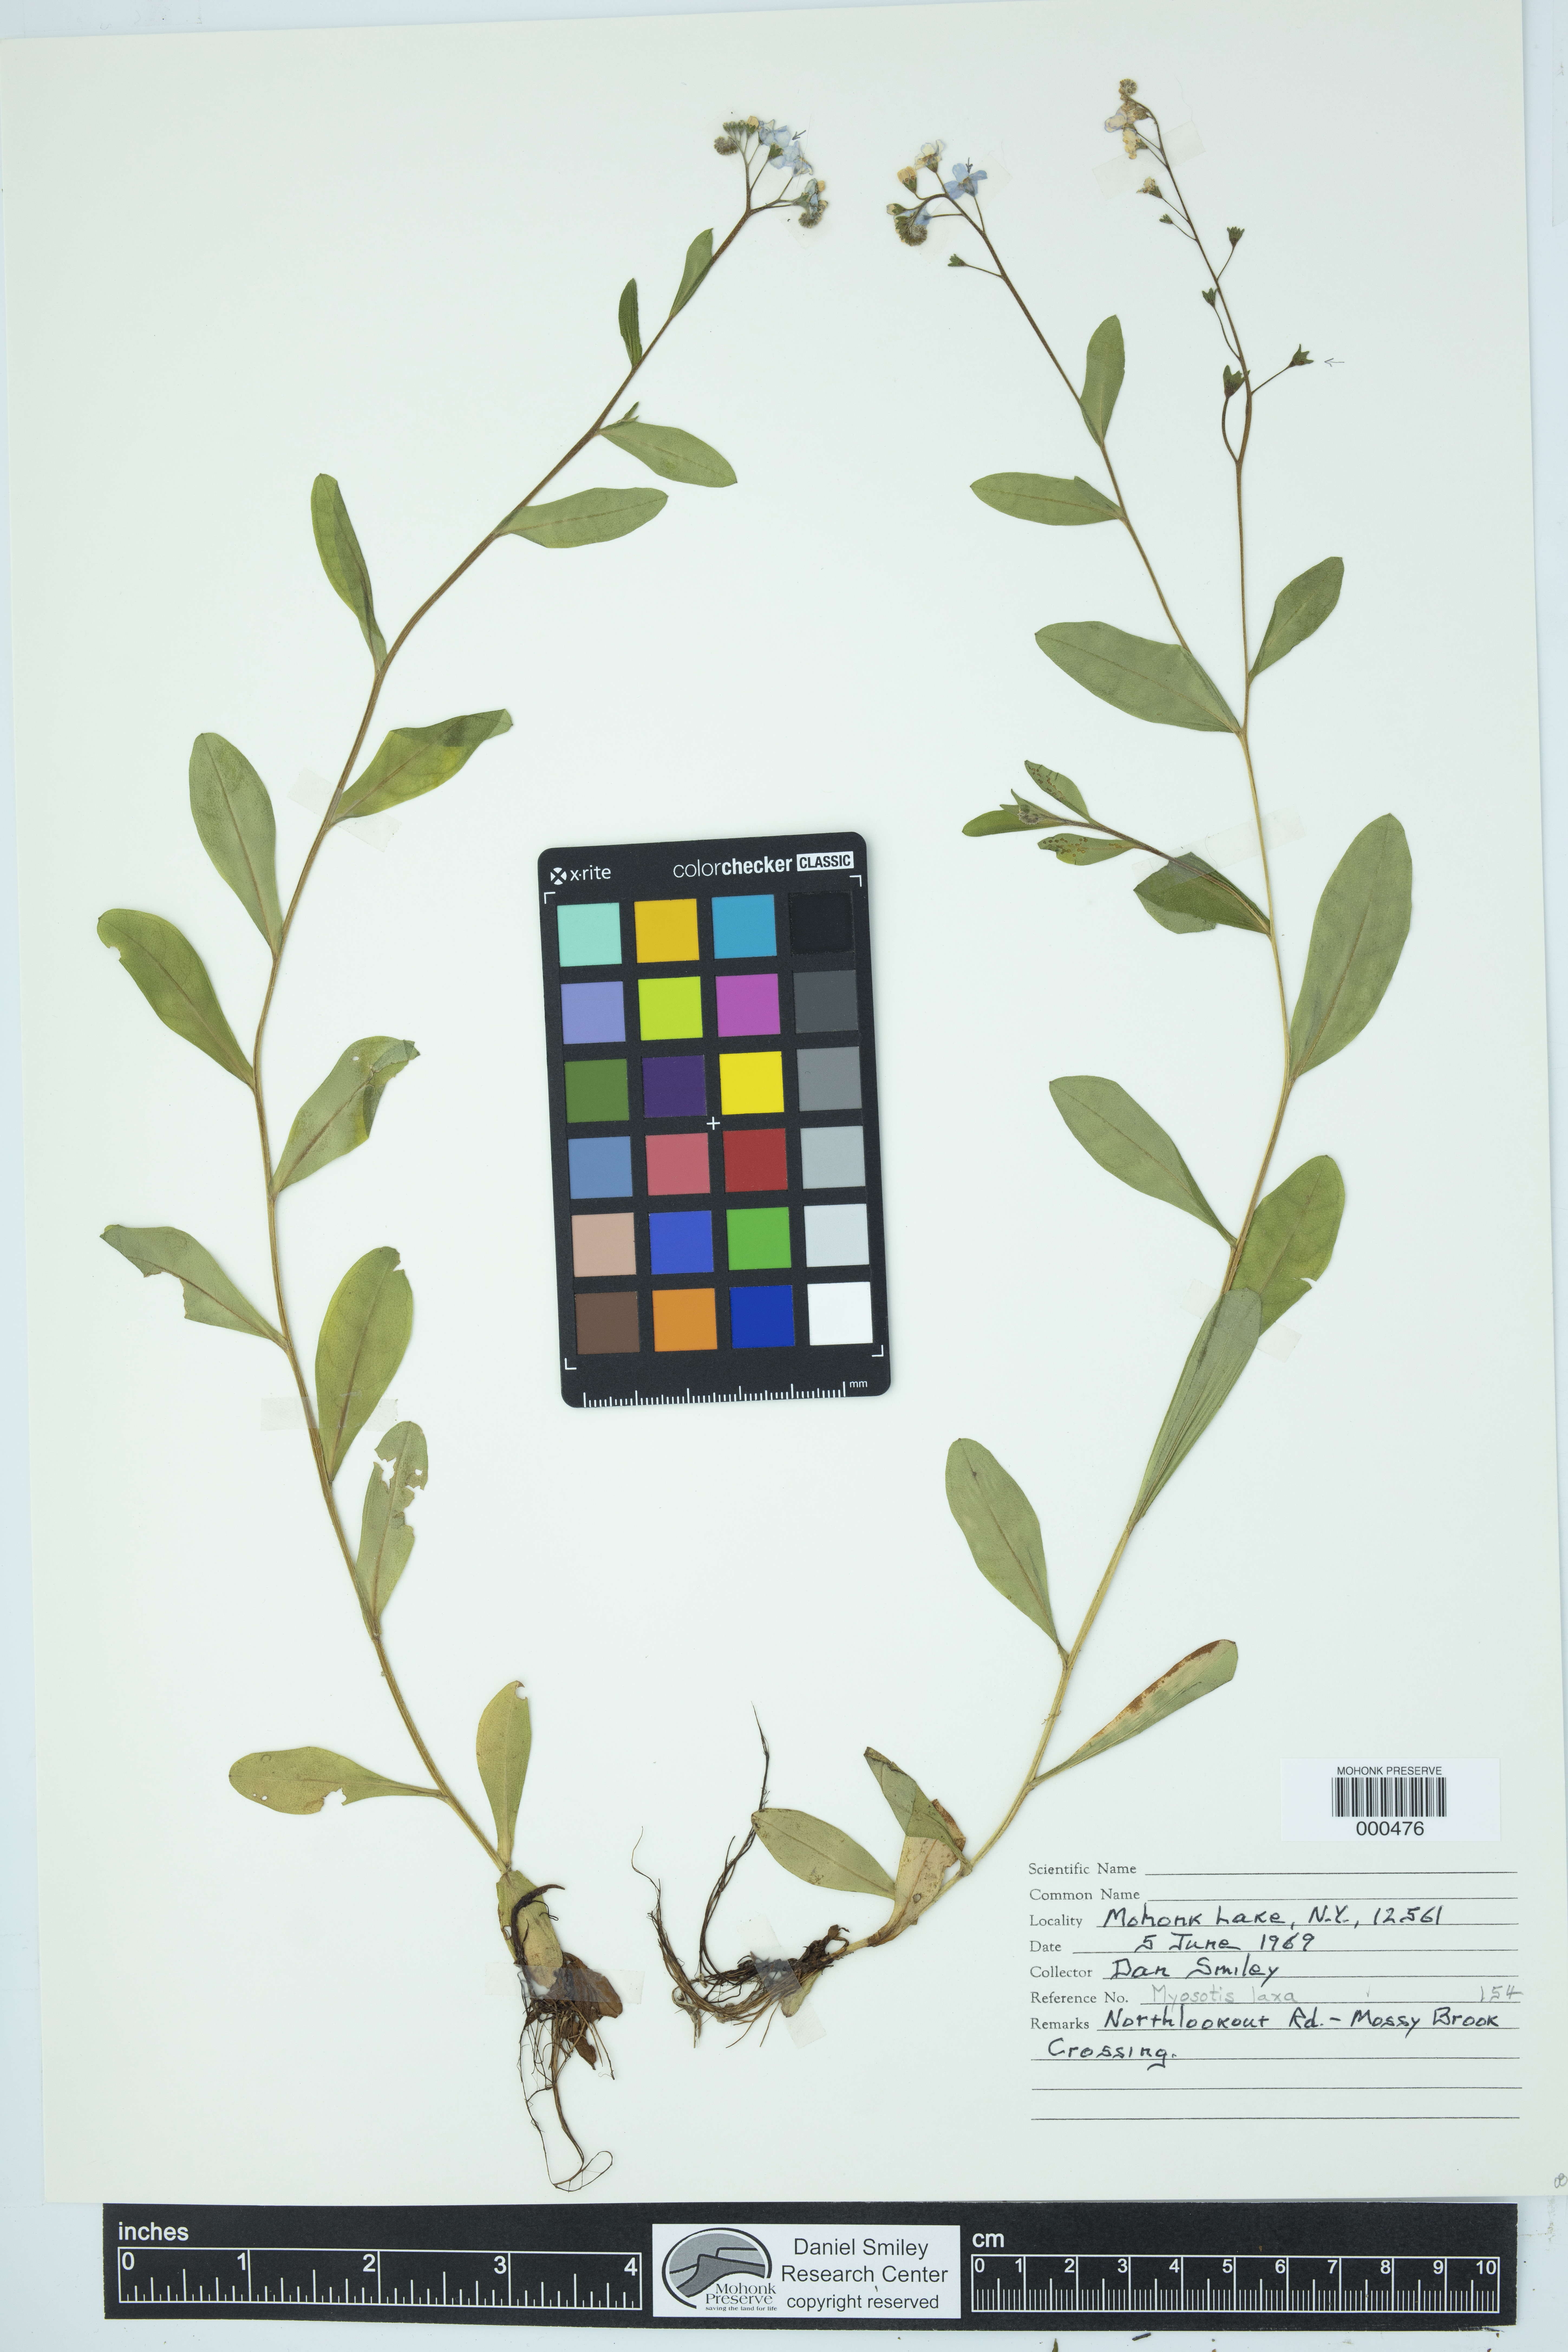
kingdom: Plantae
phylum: Tracheophyta
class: Magnoliopsida
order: Boraginales
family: Boraginaceae
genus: Myosotis
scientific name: Myosotis laxa
